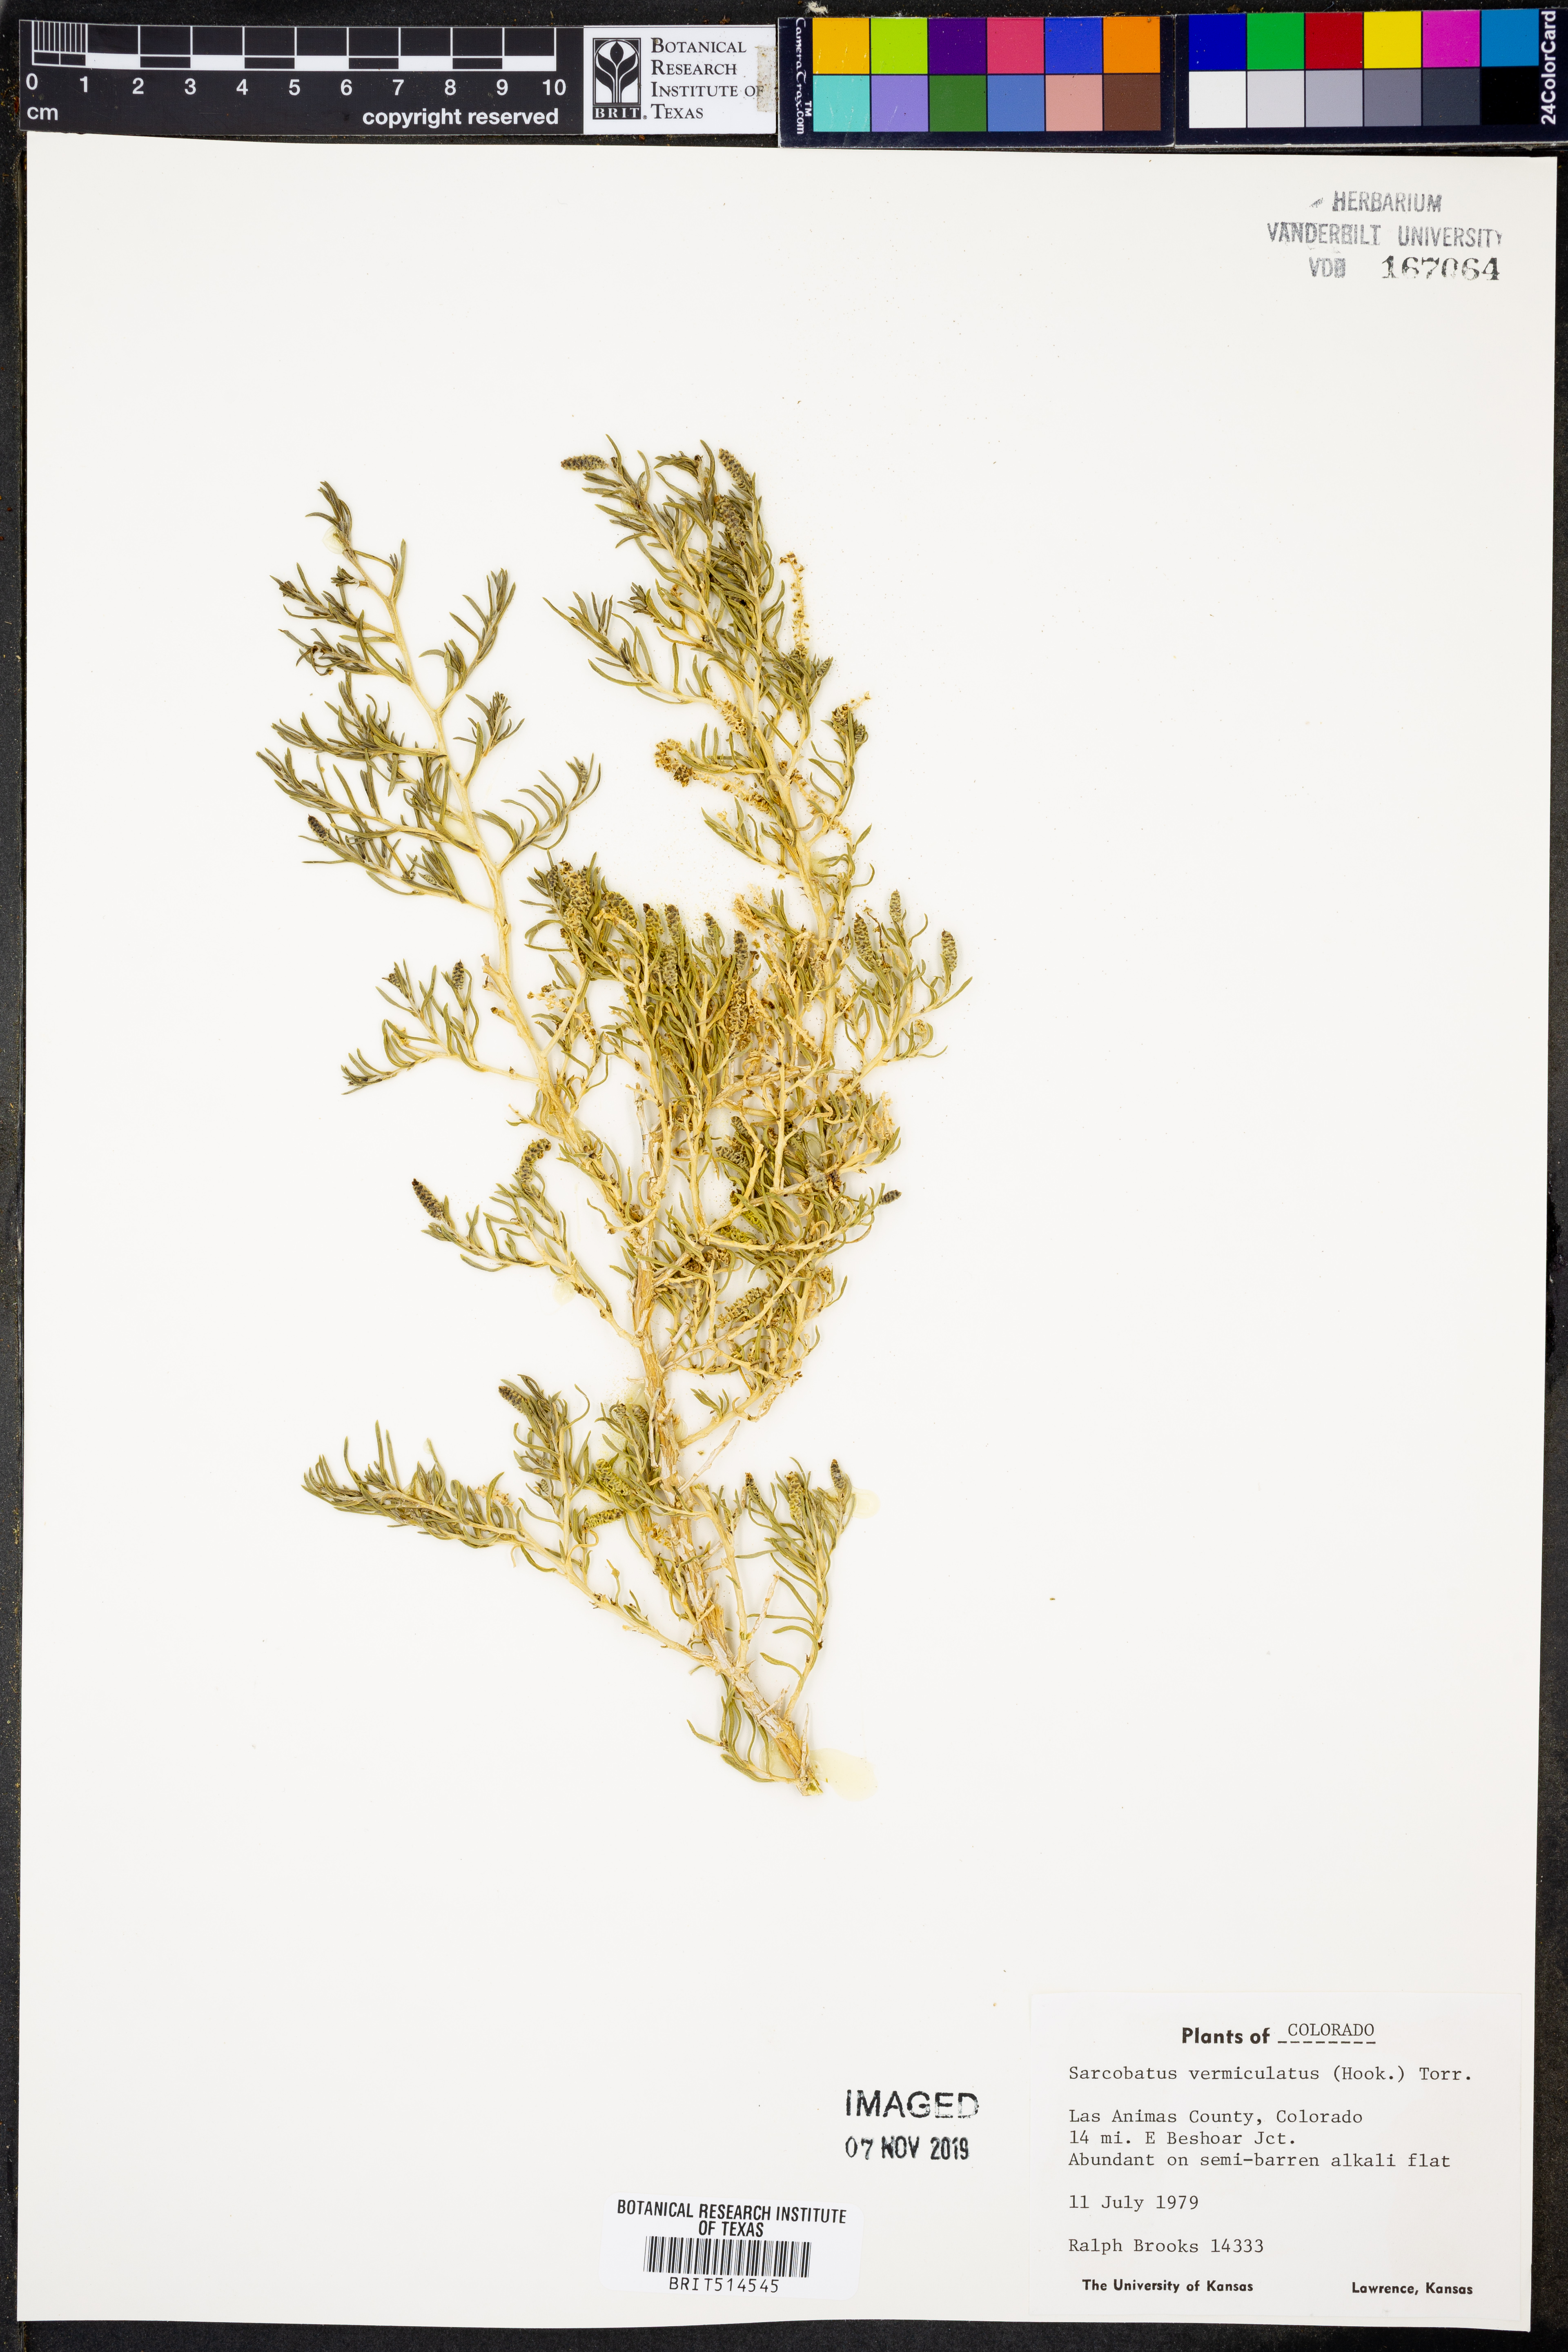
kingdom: Plantae
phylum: Tracheophyta
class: Magnoliopsida
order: Caryophyllales
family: Sarcobataceae
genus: Sarcobatus
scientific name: Sarcobatus vermiculatus
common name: Greasewood
